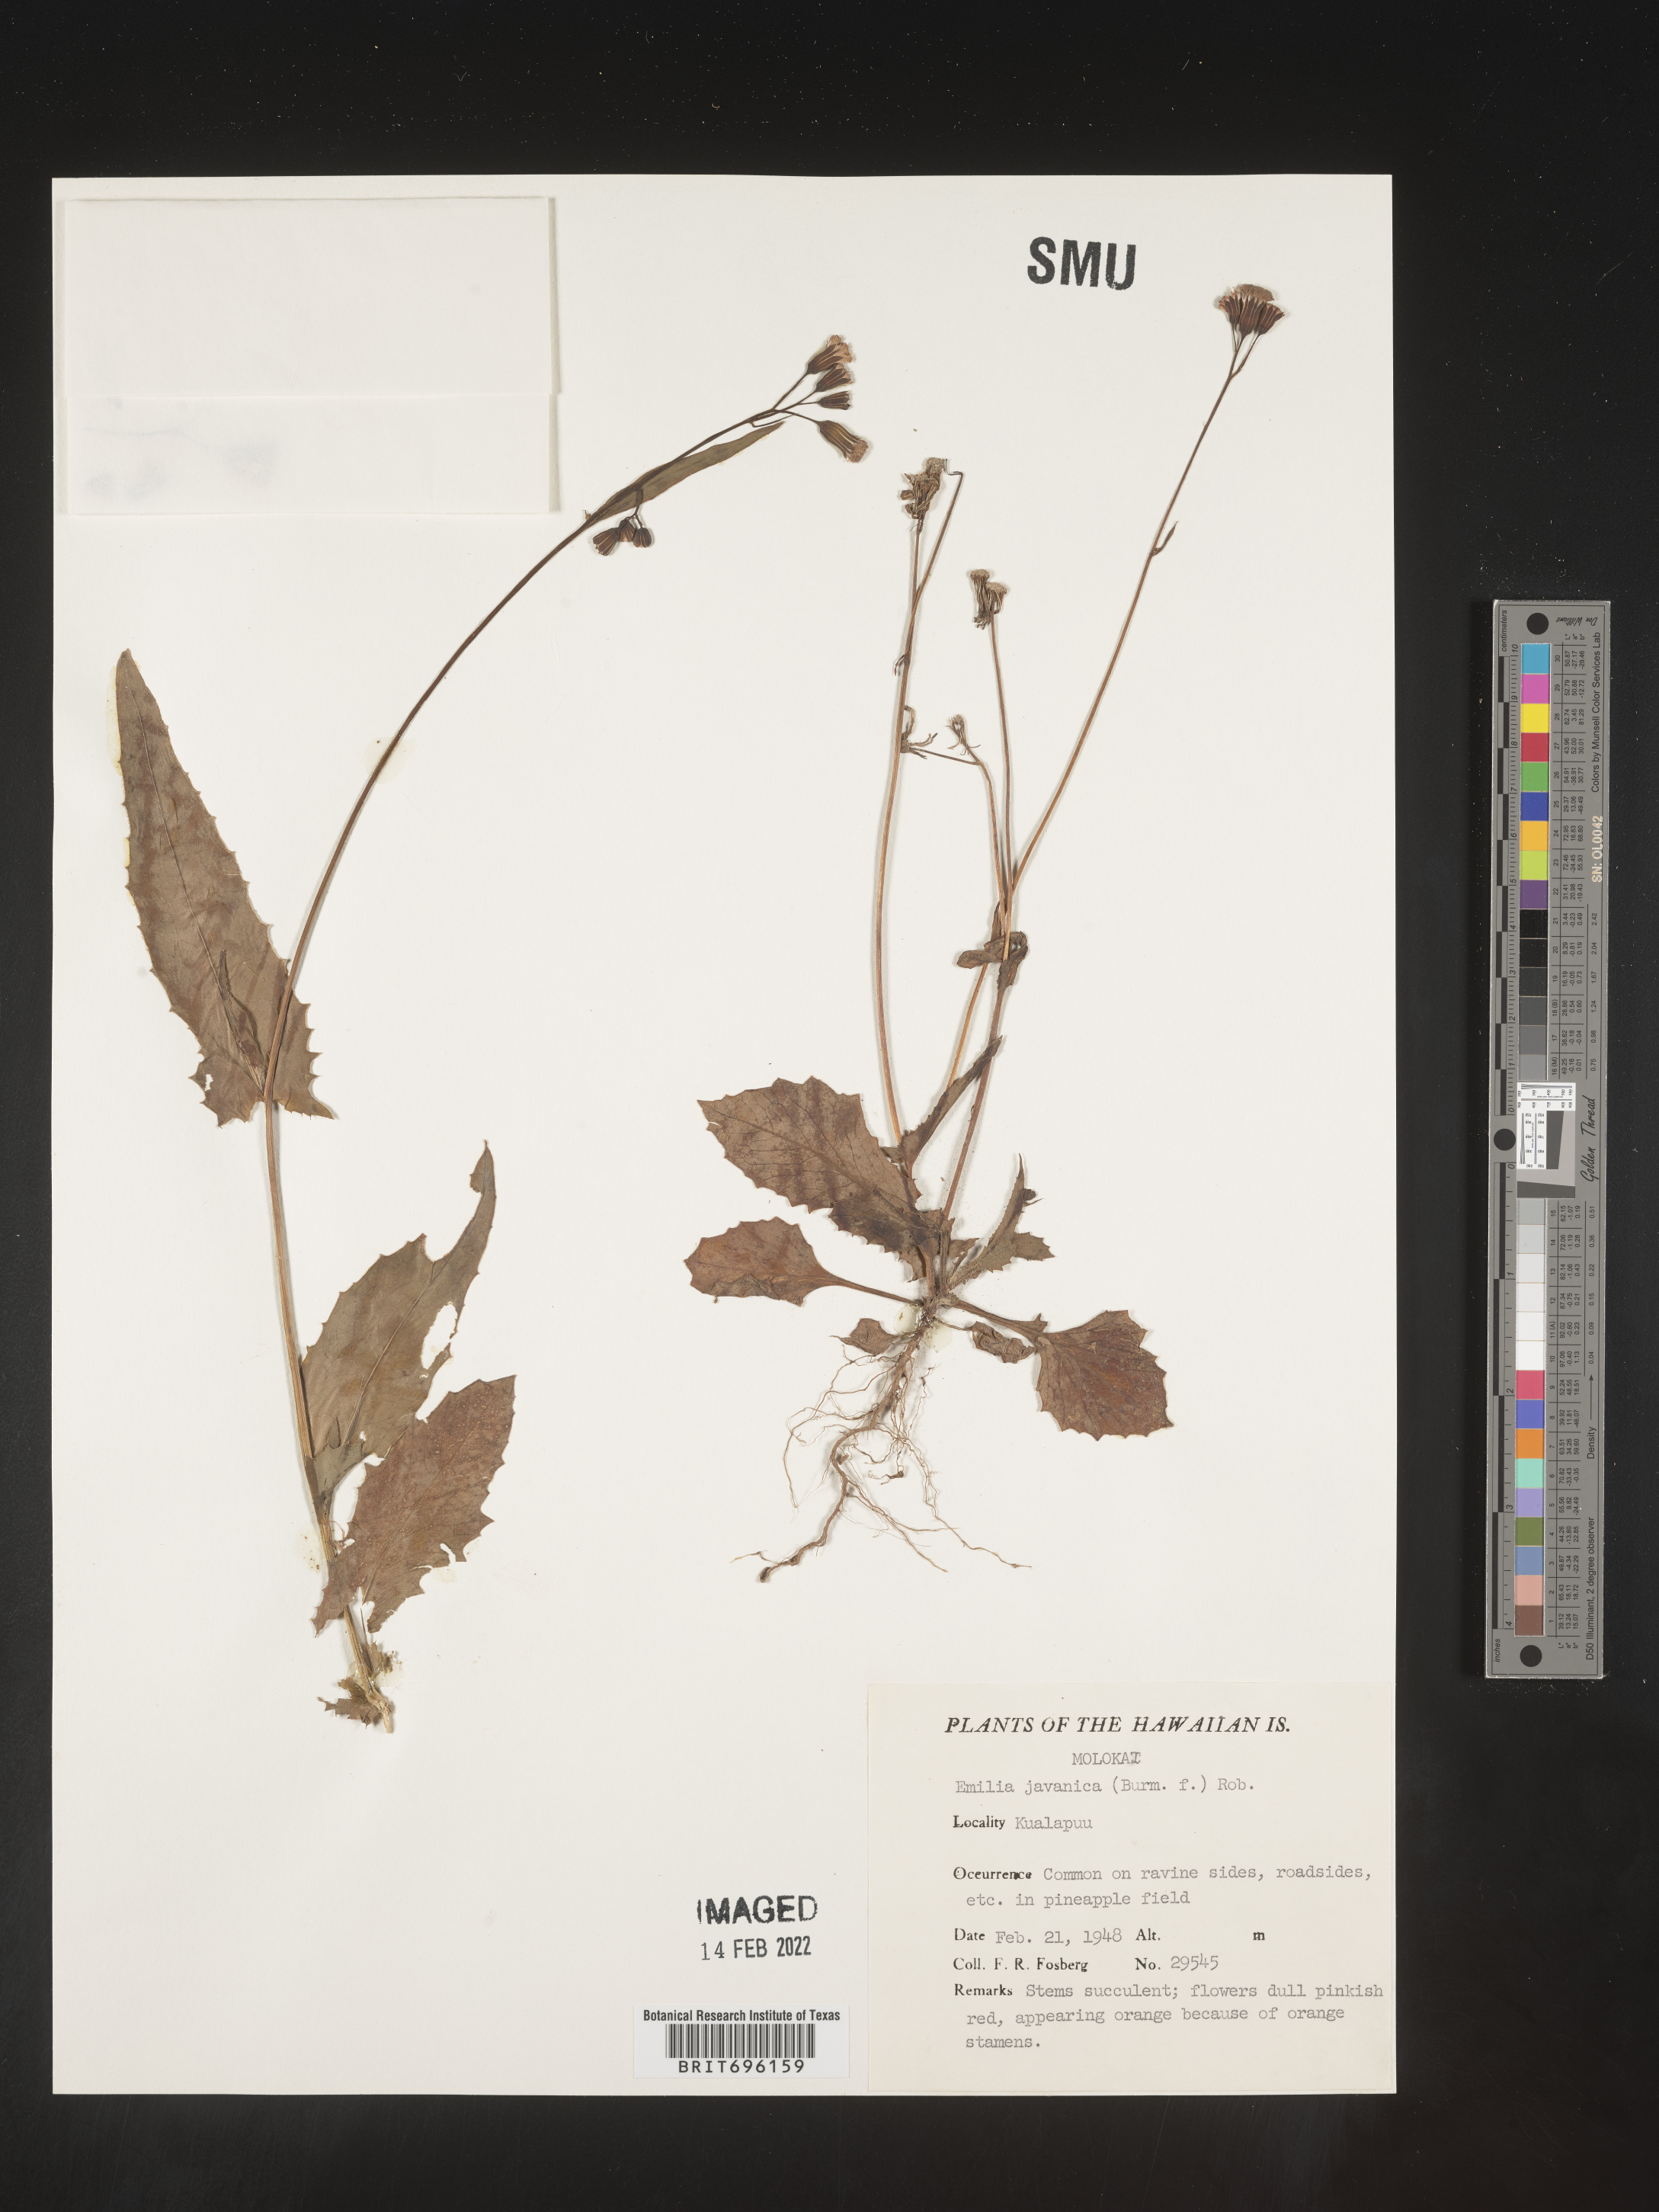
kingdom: Plantae
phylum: Tracheophyta
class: Magnoliopsida
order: Asterales
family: Asteraceae
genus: Emilia
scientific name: Emilia
